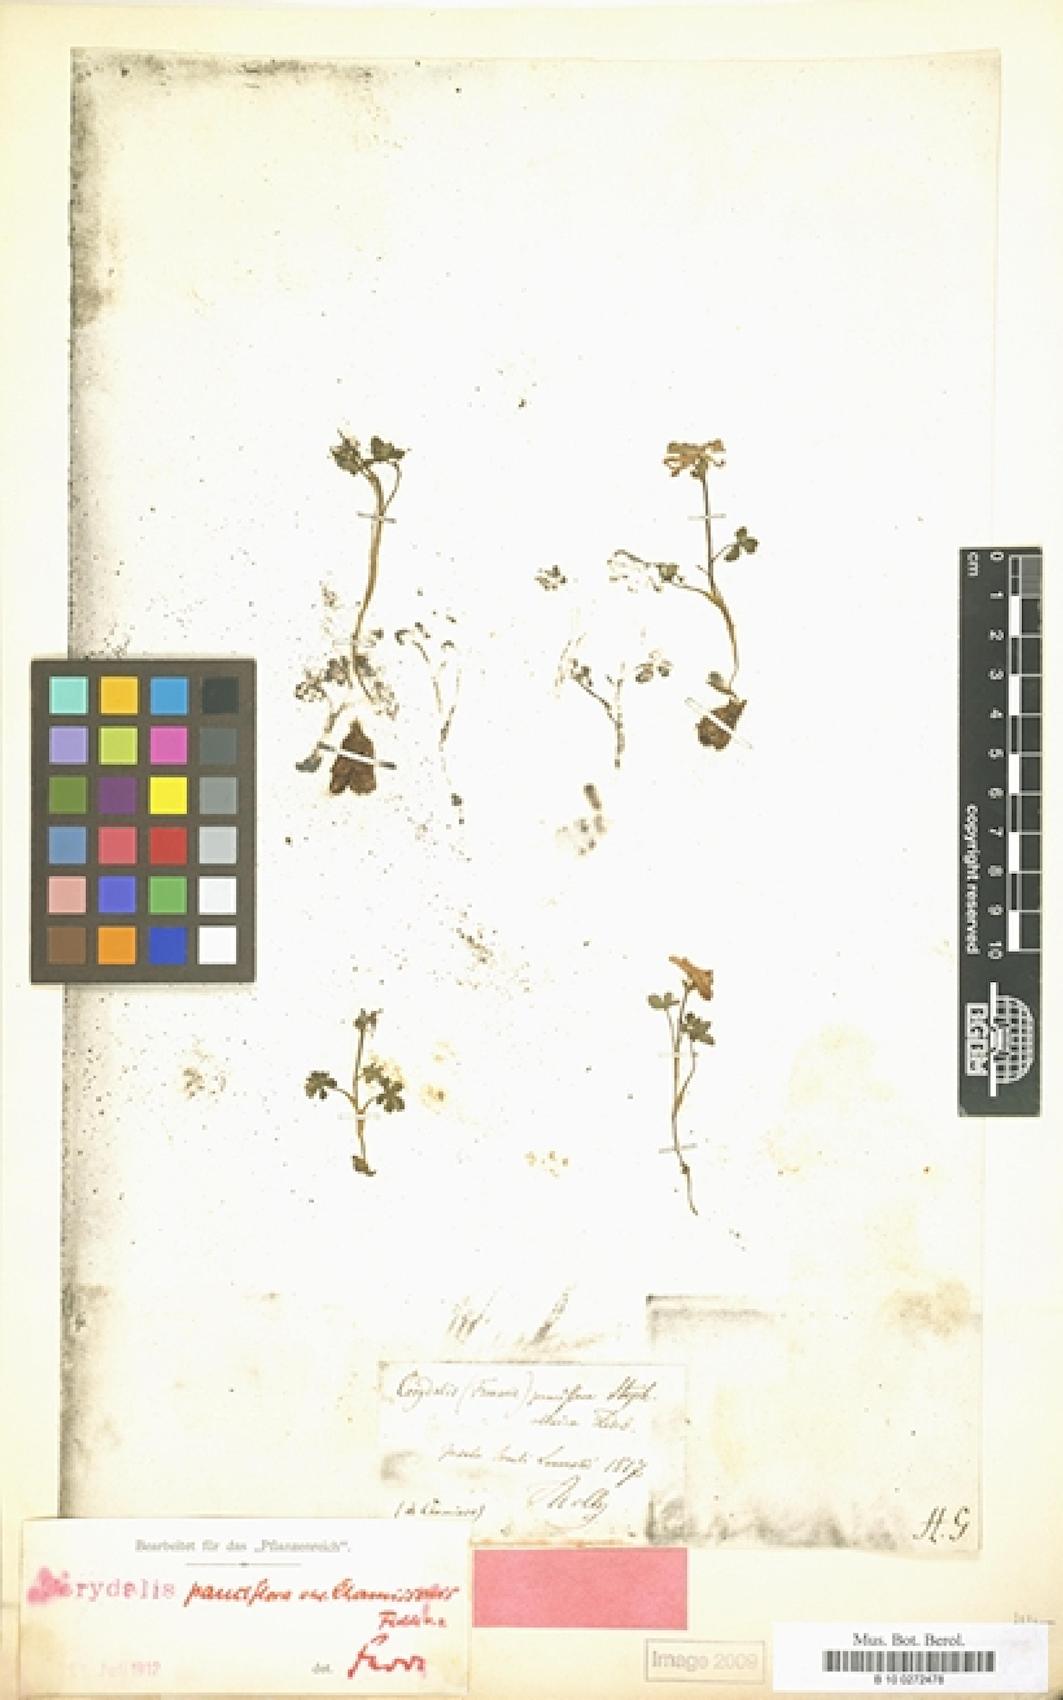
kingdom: Plantae
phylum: Tracheophyta
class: Magnoliopsida
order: Ranunculales
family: Papaveraceae
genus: Corydalis
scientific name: Corydalis
